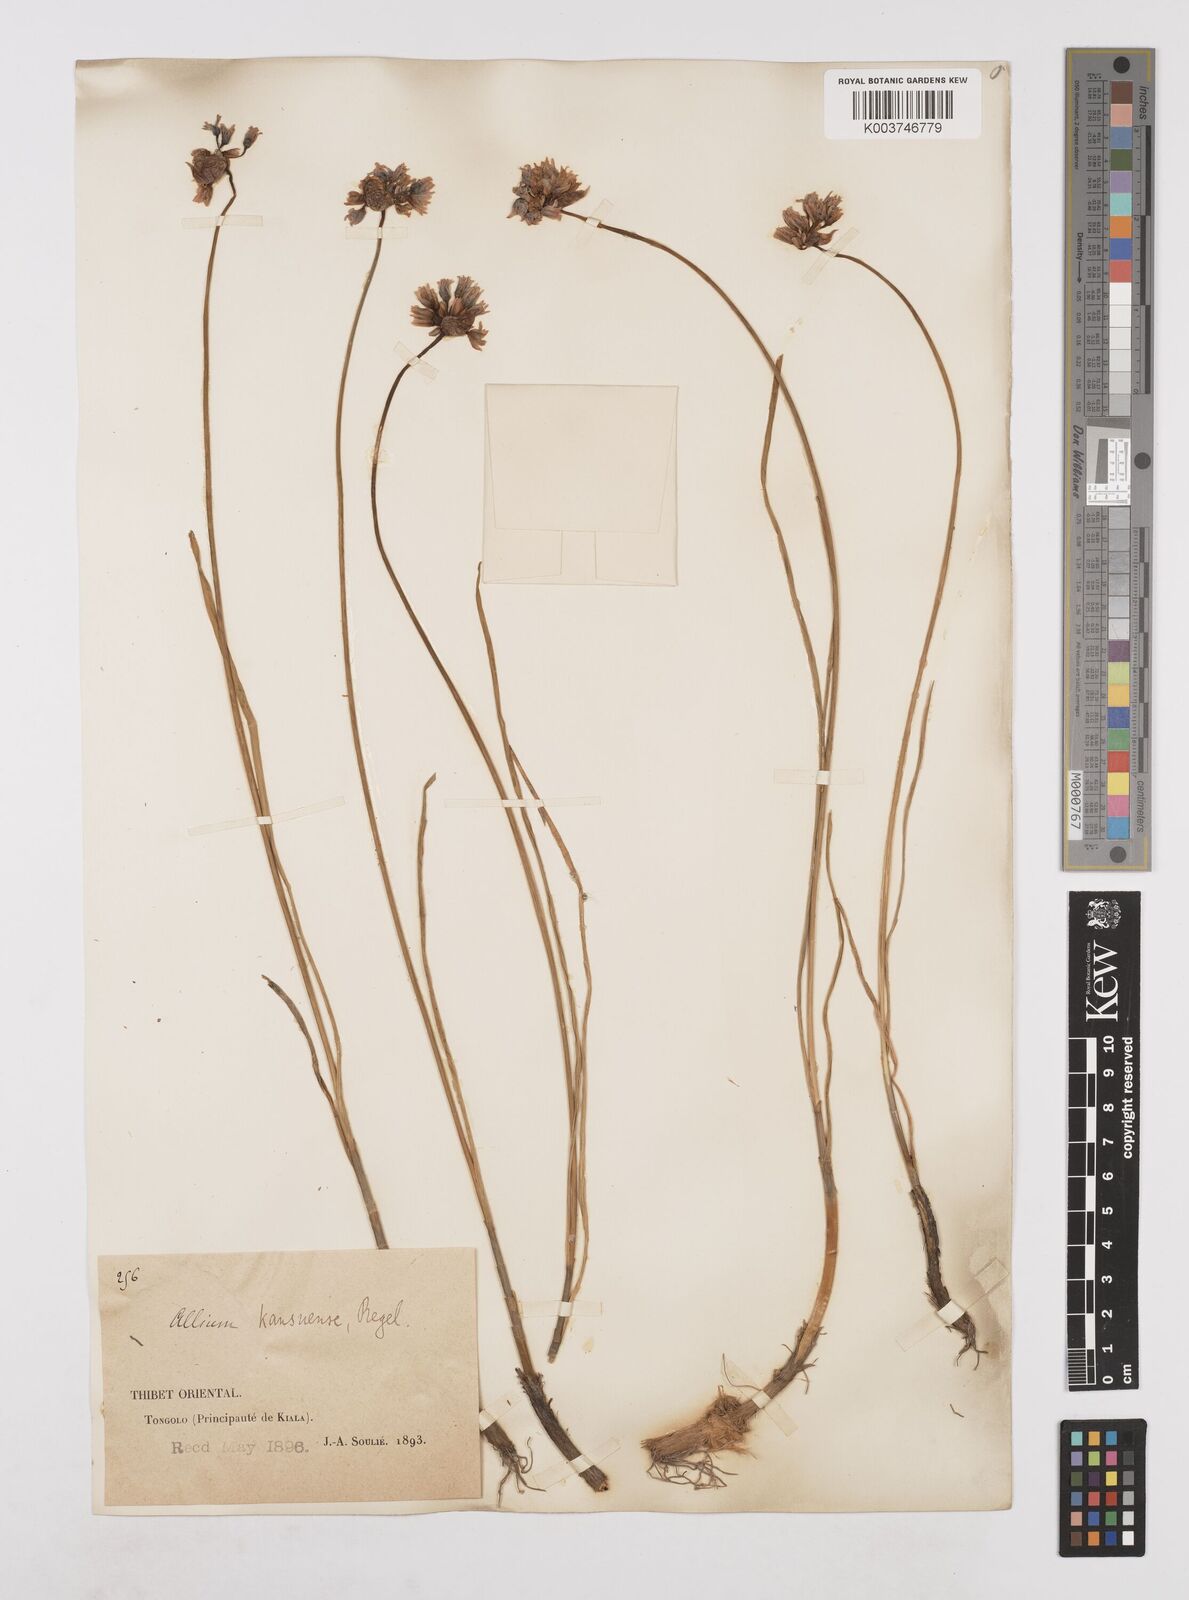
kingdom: Plantae
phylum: Tracheophyta
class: Liliopsida
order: Asparagales
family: Amaryllidaceae
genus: Allium
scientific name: Allium sikkimense
